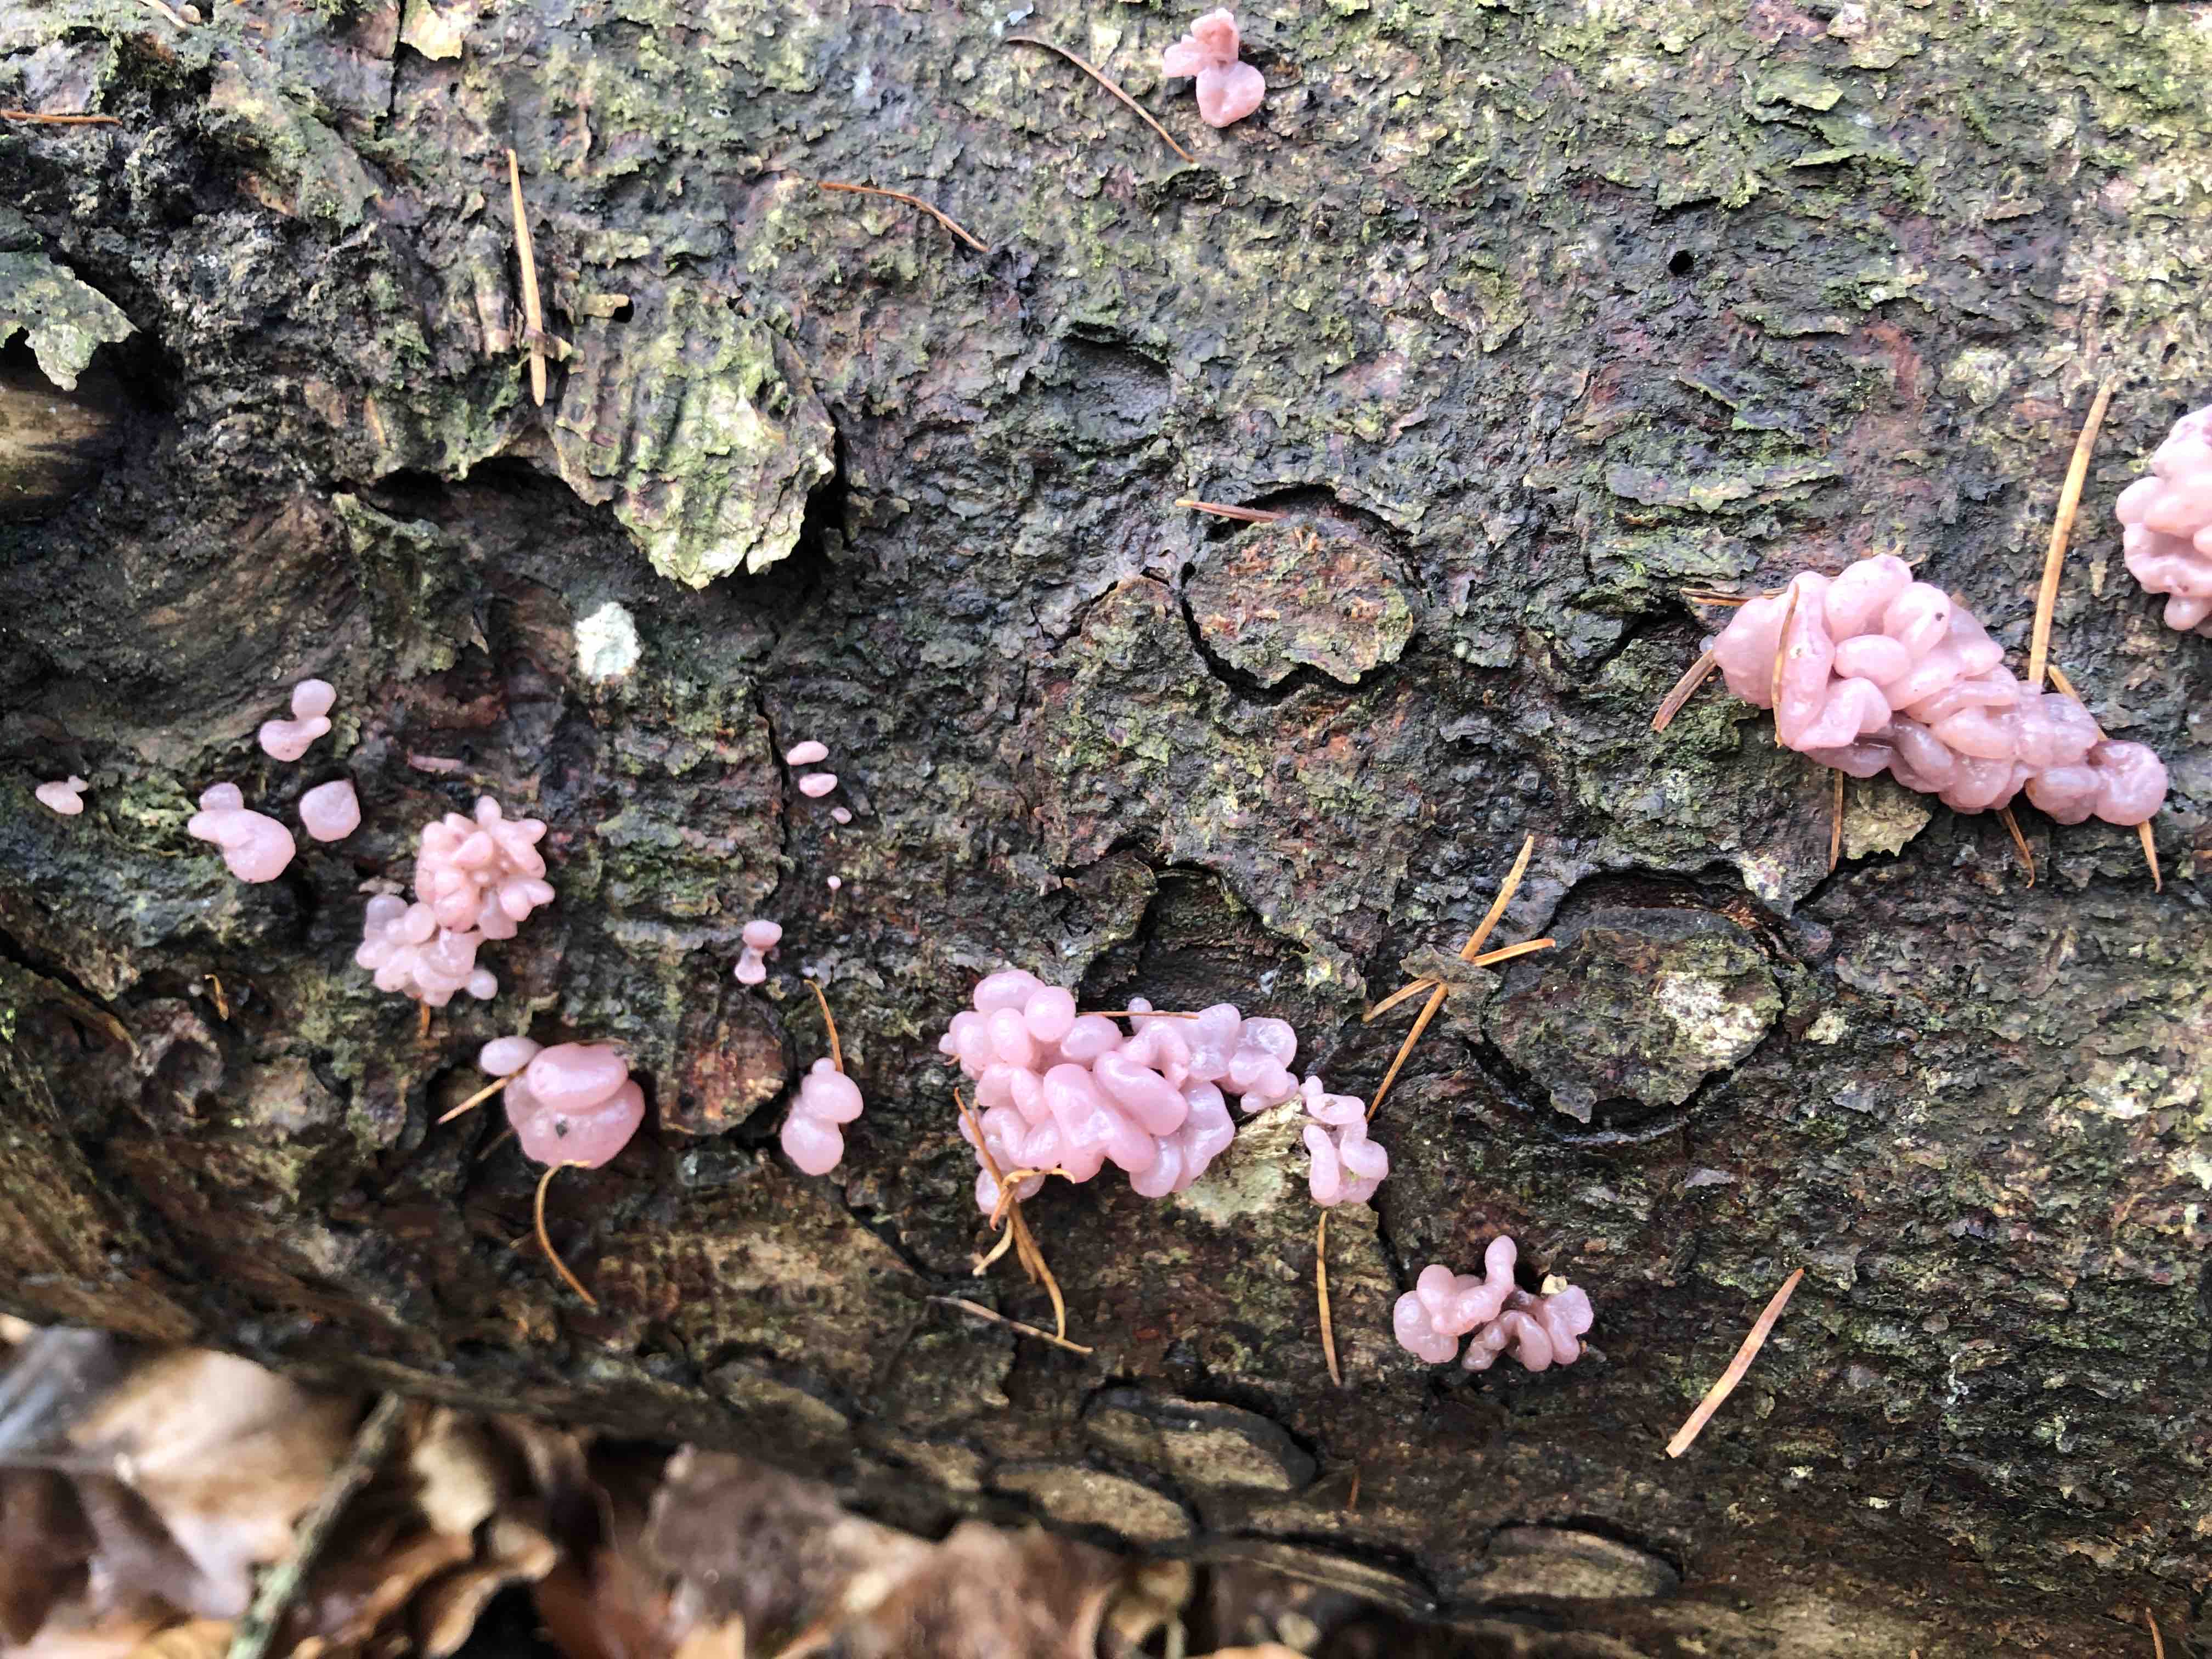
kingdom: Fungi
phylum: Ascomycota
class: Leotiomycetes
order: Helotiales
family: Gelatinodiscaceae
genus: Ascocoryne
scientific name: Ascocoryne sarcoides
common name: rødlilla sejskive
